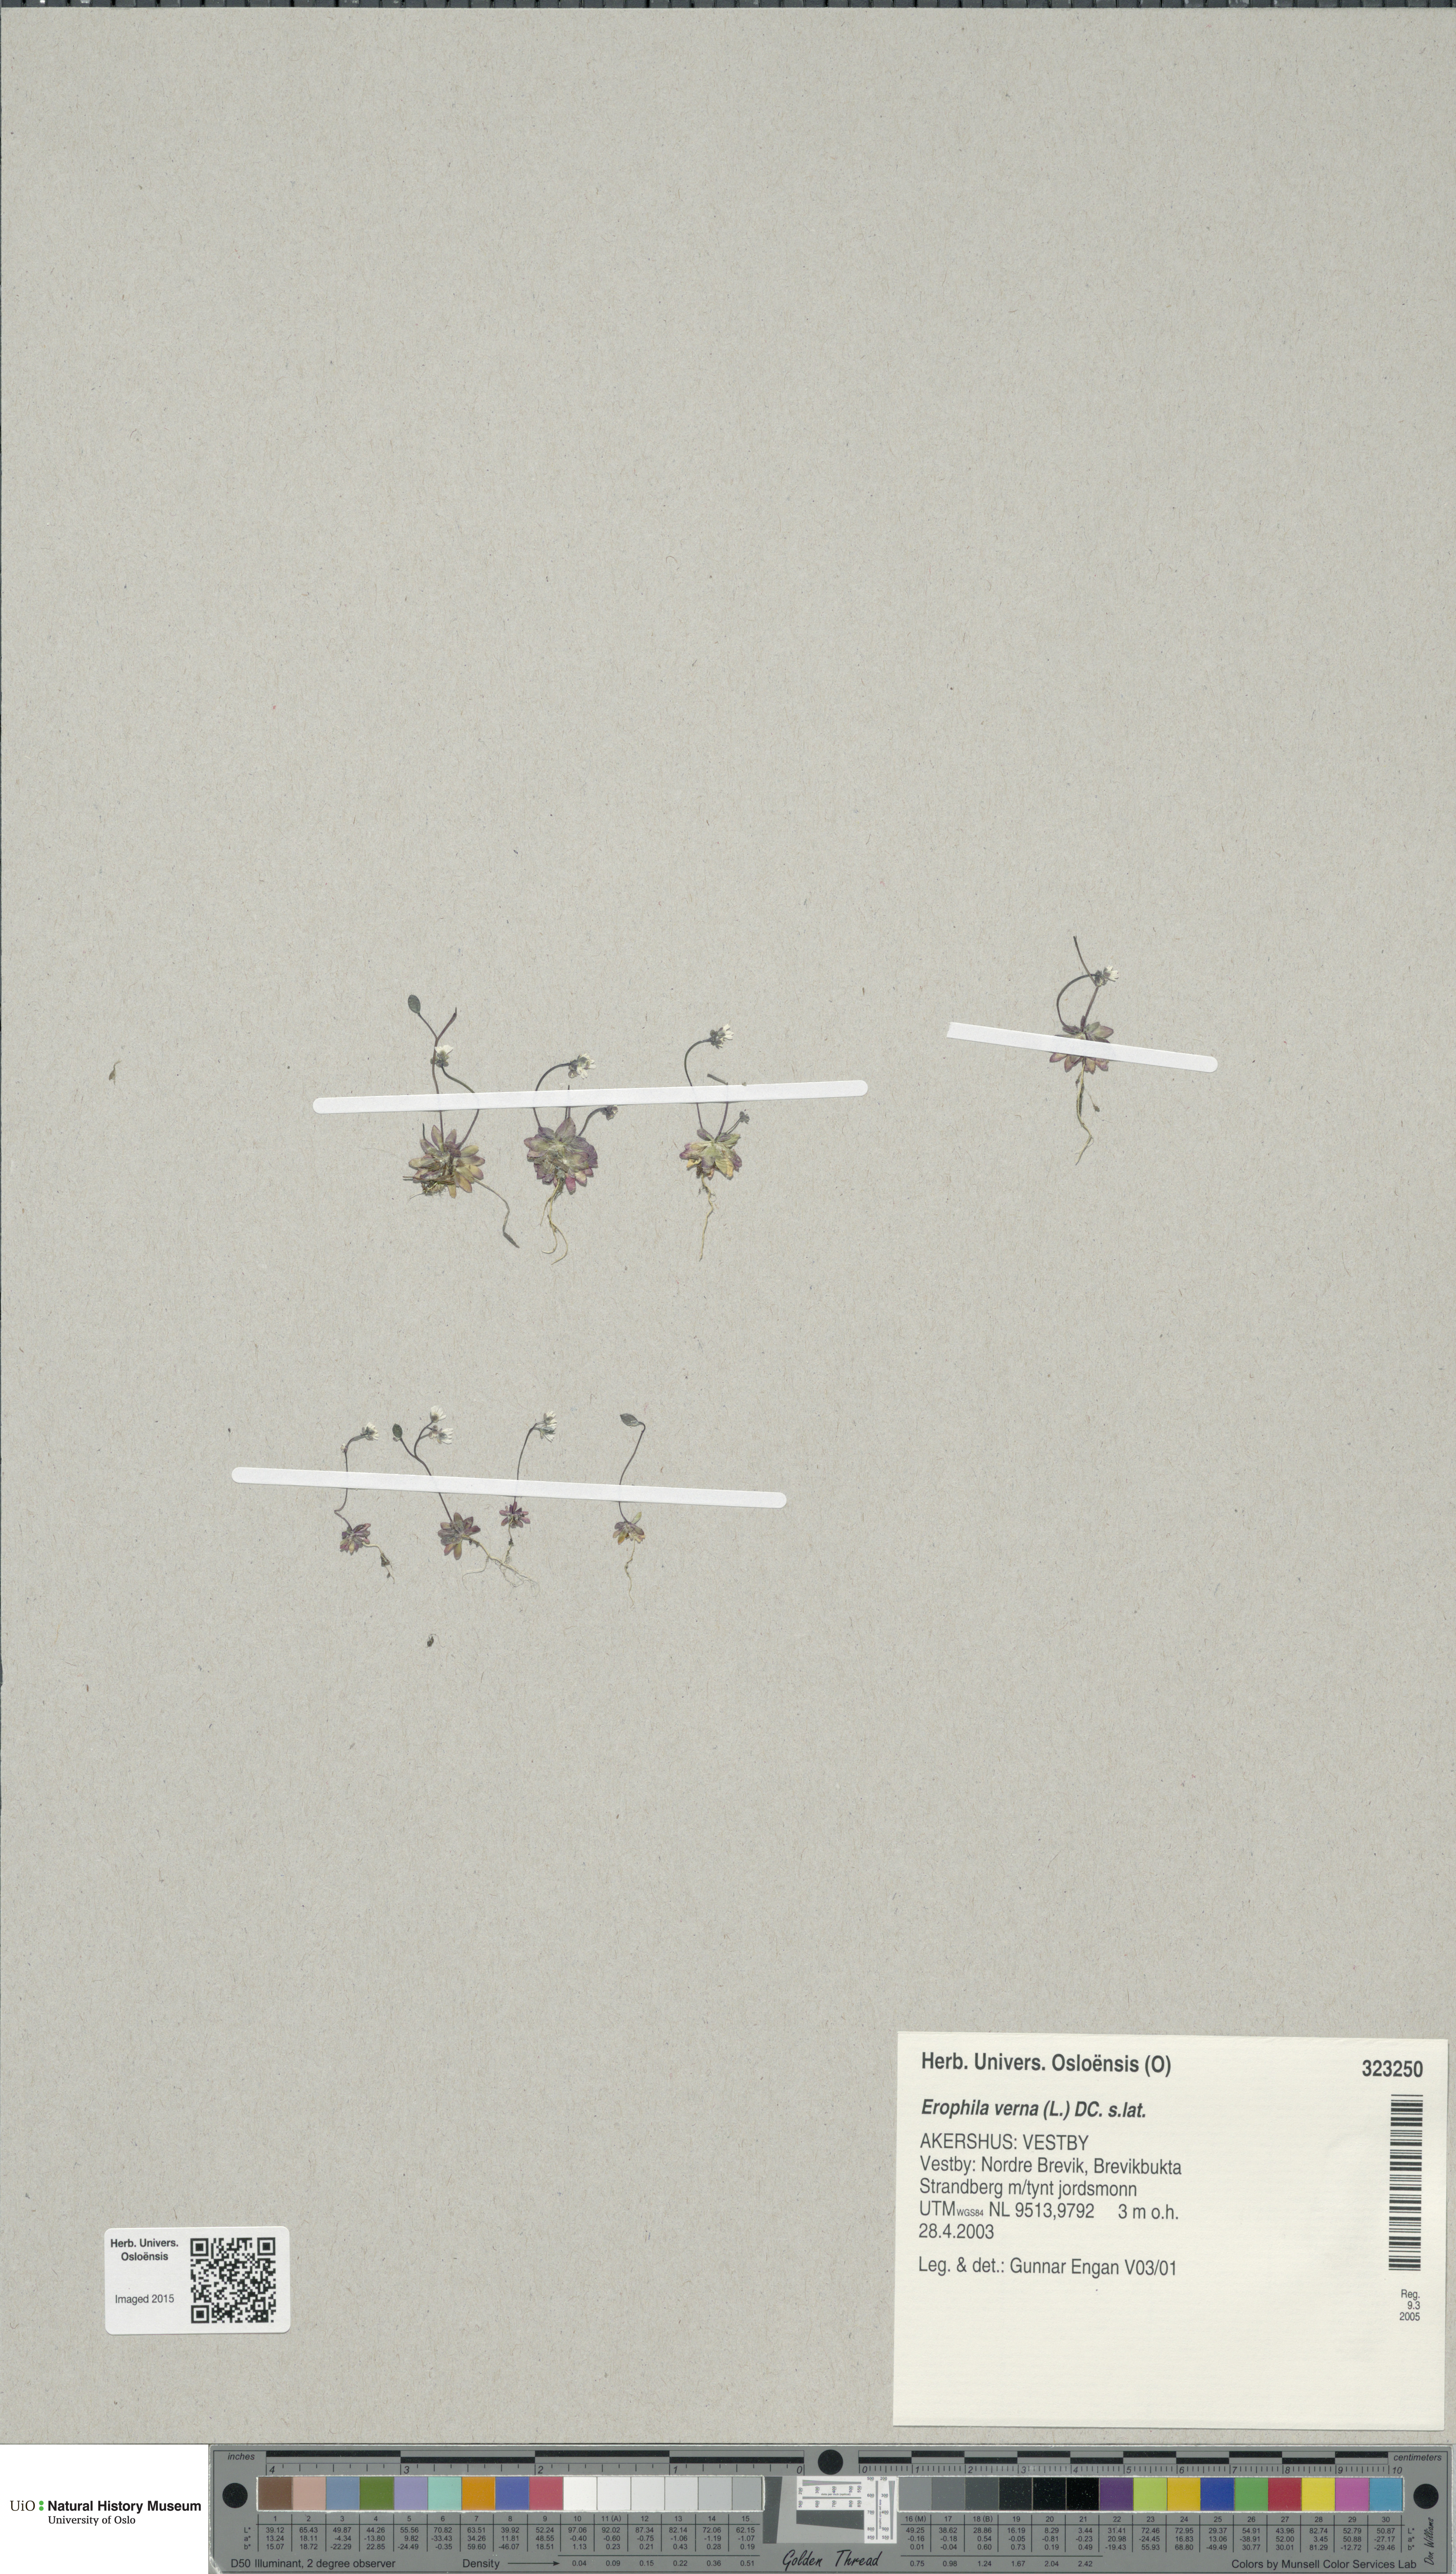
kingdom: Plantae
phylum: Tracheophyta
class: Magnoliopsida
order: Brassicales
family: Brassicaceae
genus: Draba
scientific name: Draba verna
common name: Spring draba
